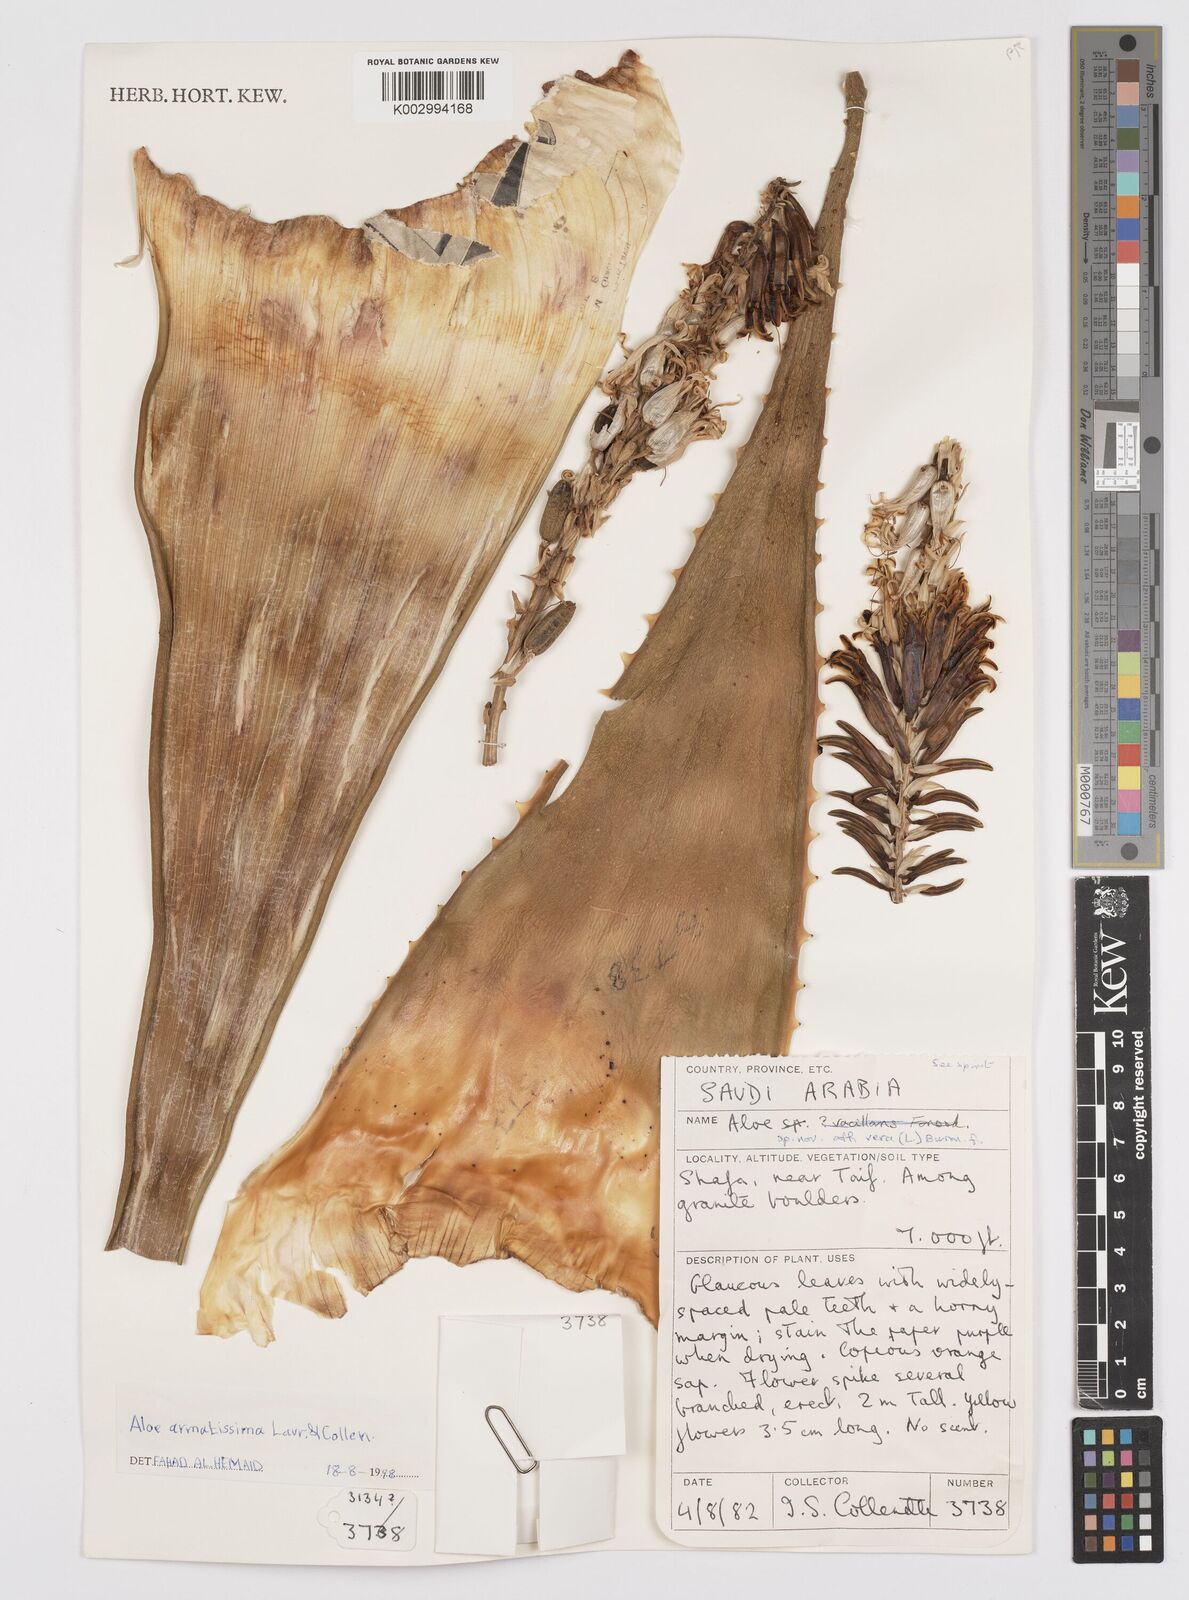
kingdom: Plantae
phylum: Tracheophyta
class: Liliopsida
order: Asparagales
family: Asphodelaceae
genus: Aloe
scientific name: Aloe armatissima
